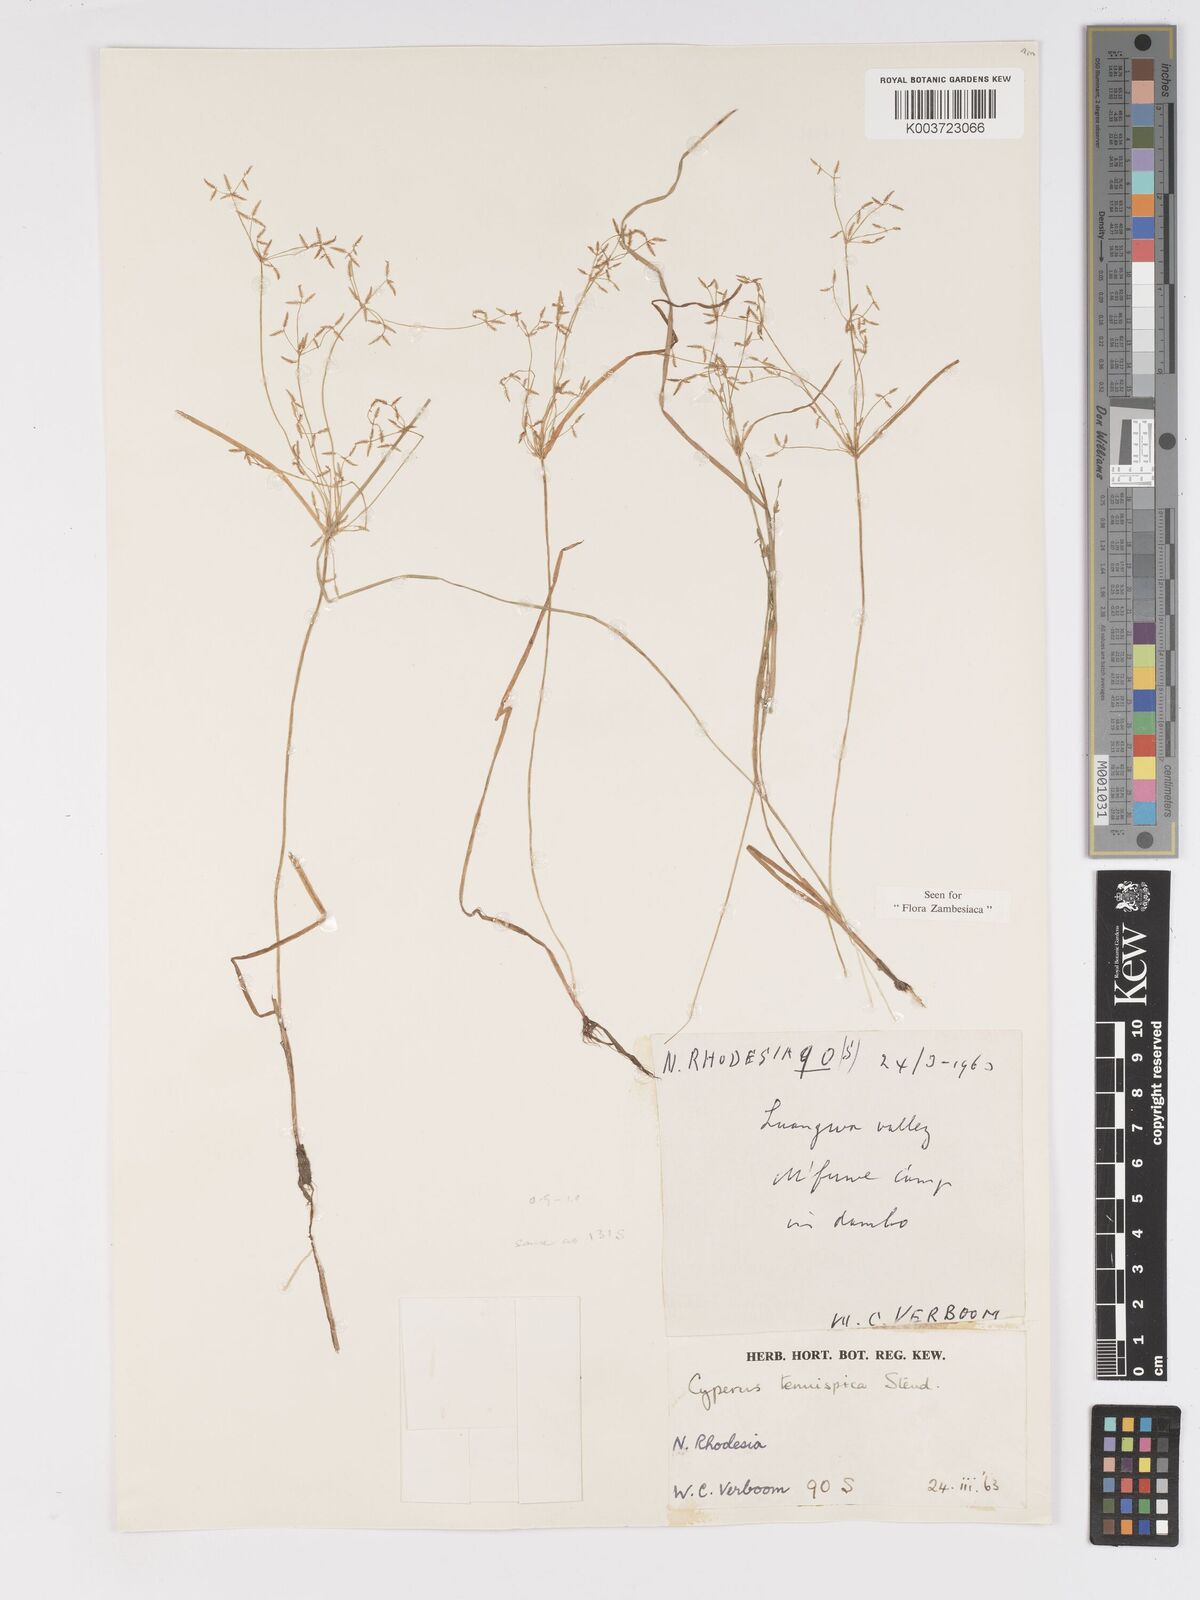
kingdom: Plantae
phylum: Tracheophyta
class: Liliopsida
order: Poales
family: Cyperaceae
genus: Cyperus
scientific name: Cyperus tenuispica
